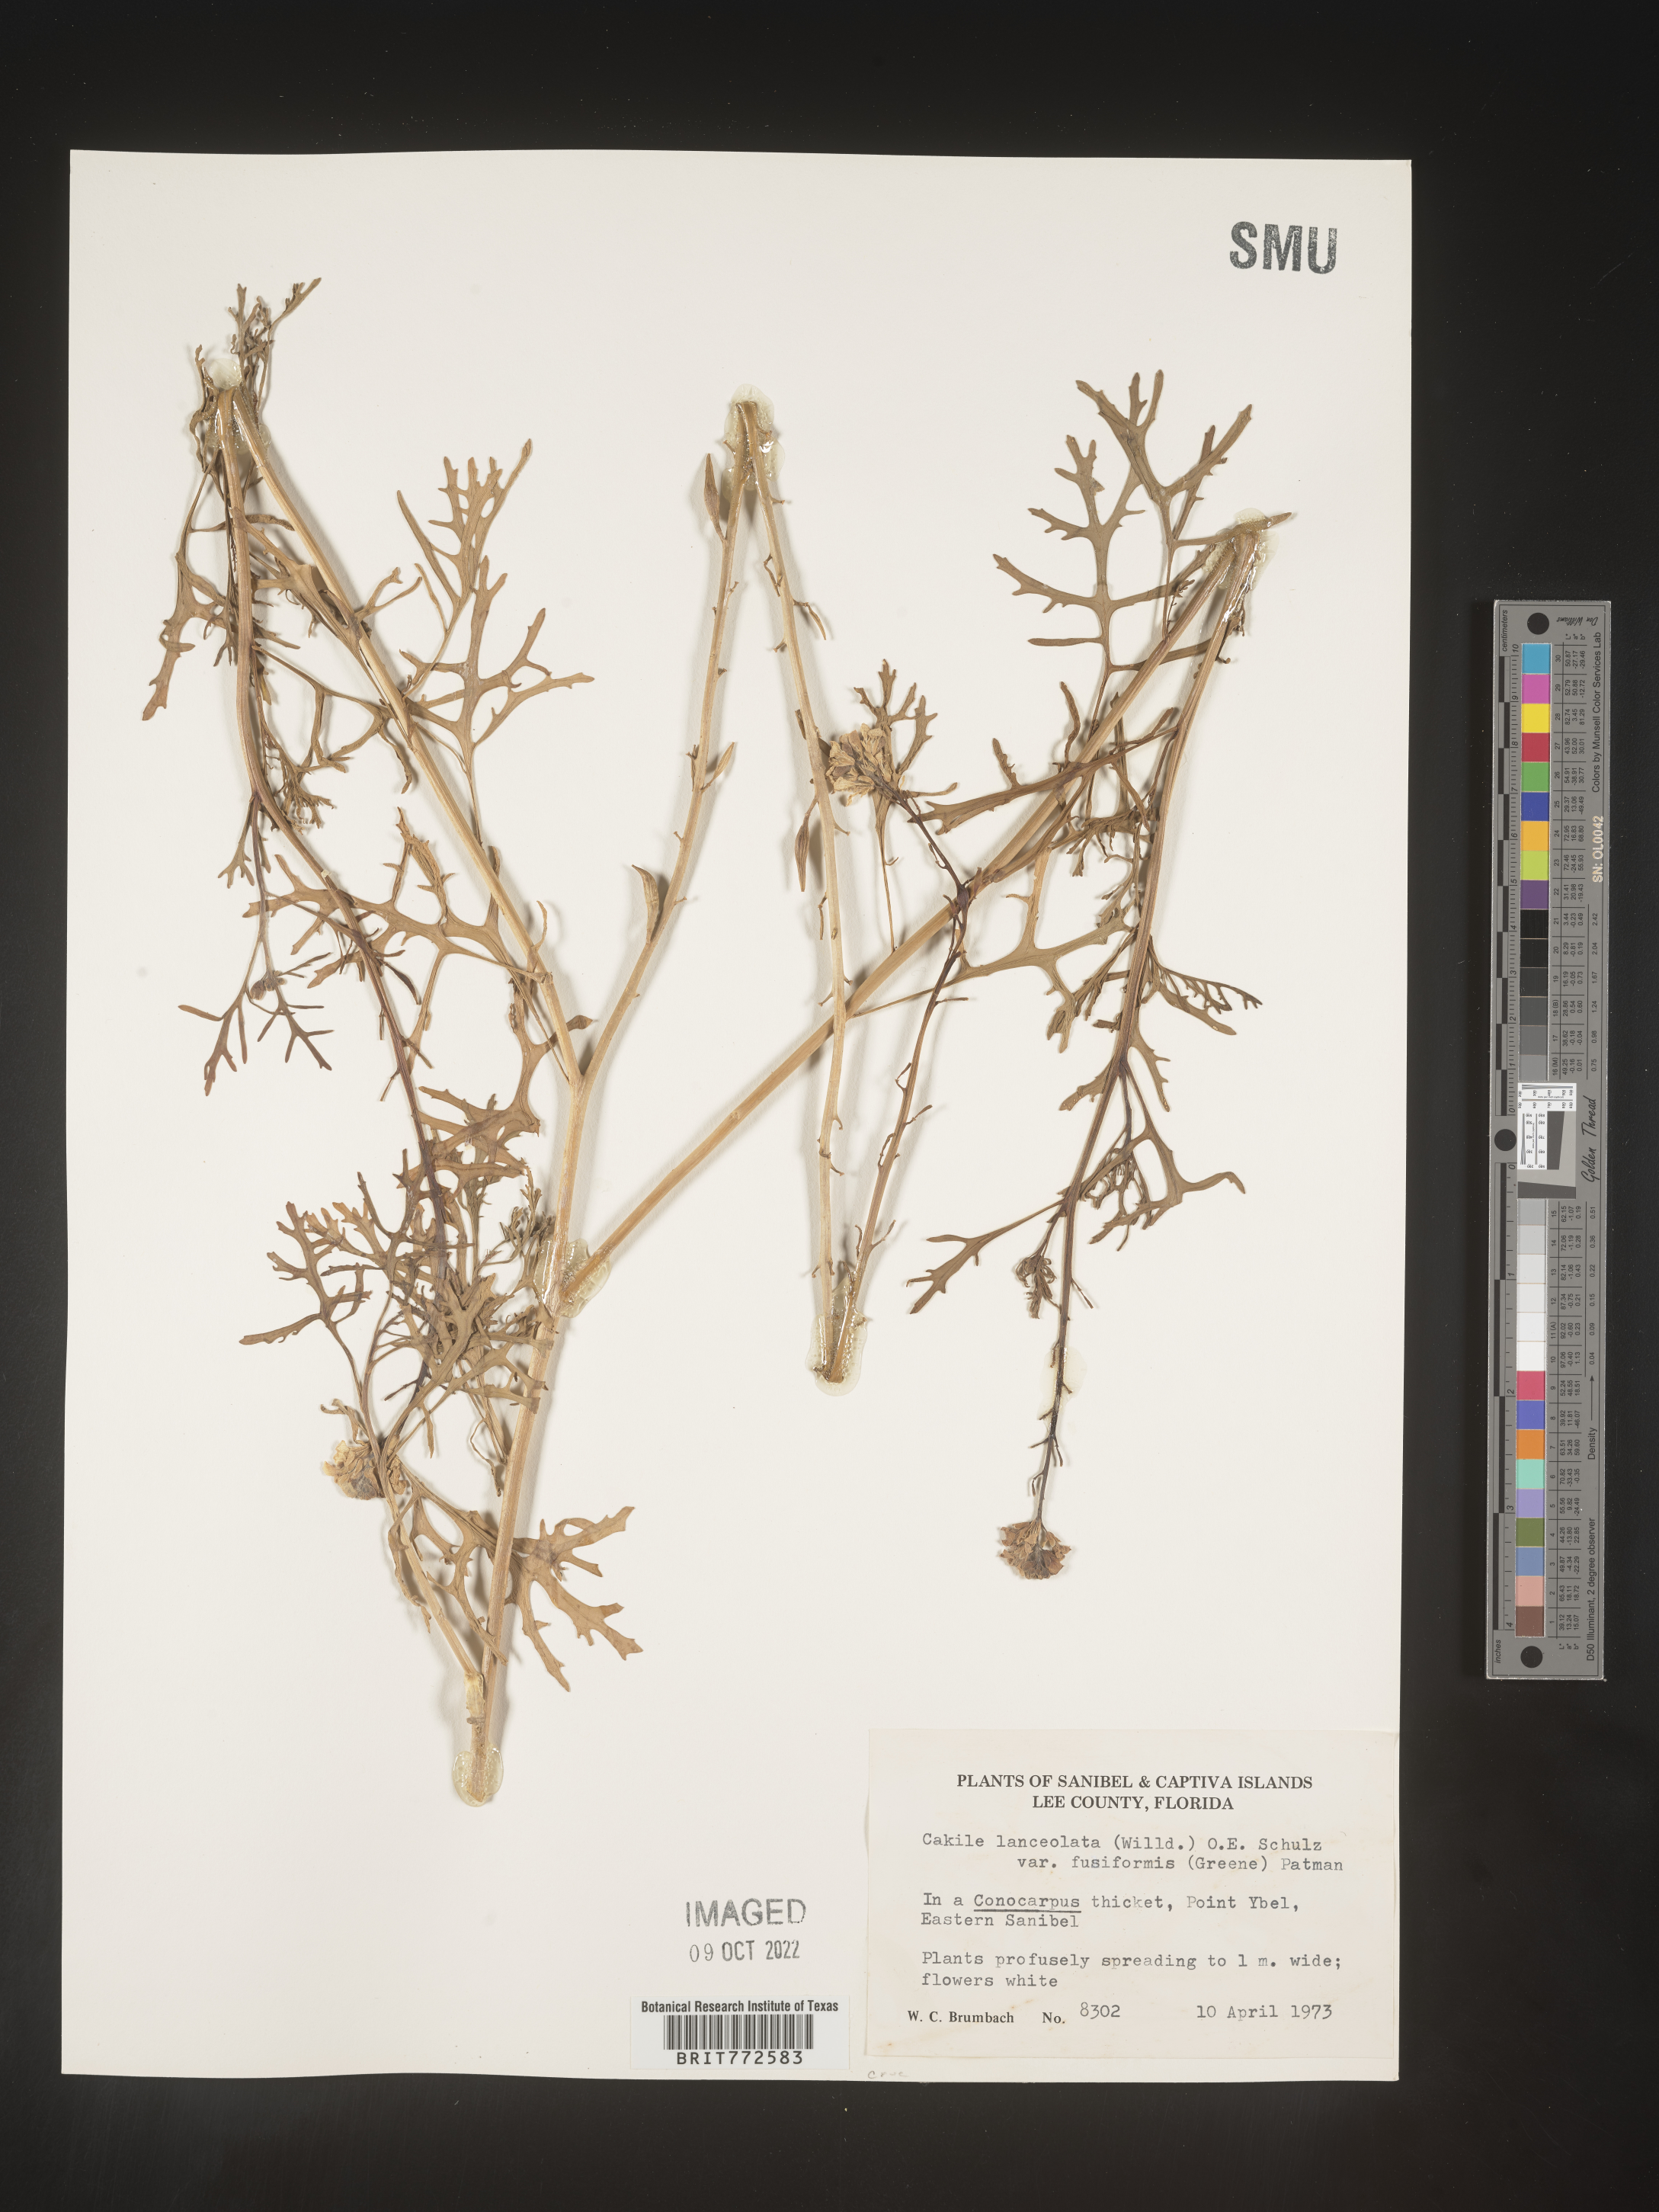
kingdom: Plantae
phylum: Tracheophyta
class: Magnoliopsida
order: Brassicales
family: Brassicaceae
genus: Cakile
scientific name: Cakile lanceolata
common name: Sea rocket
